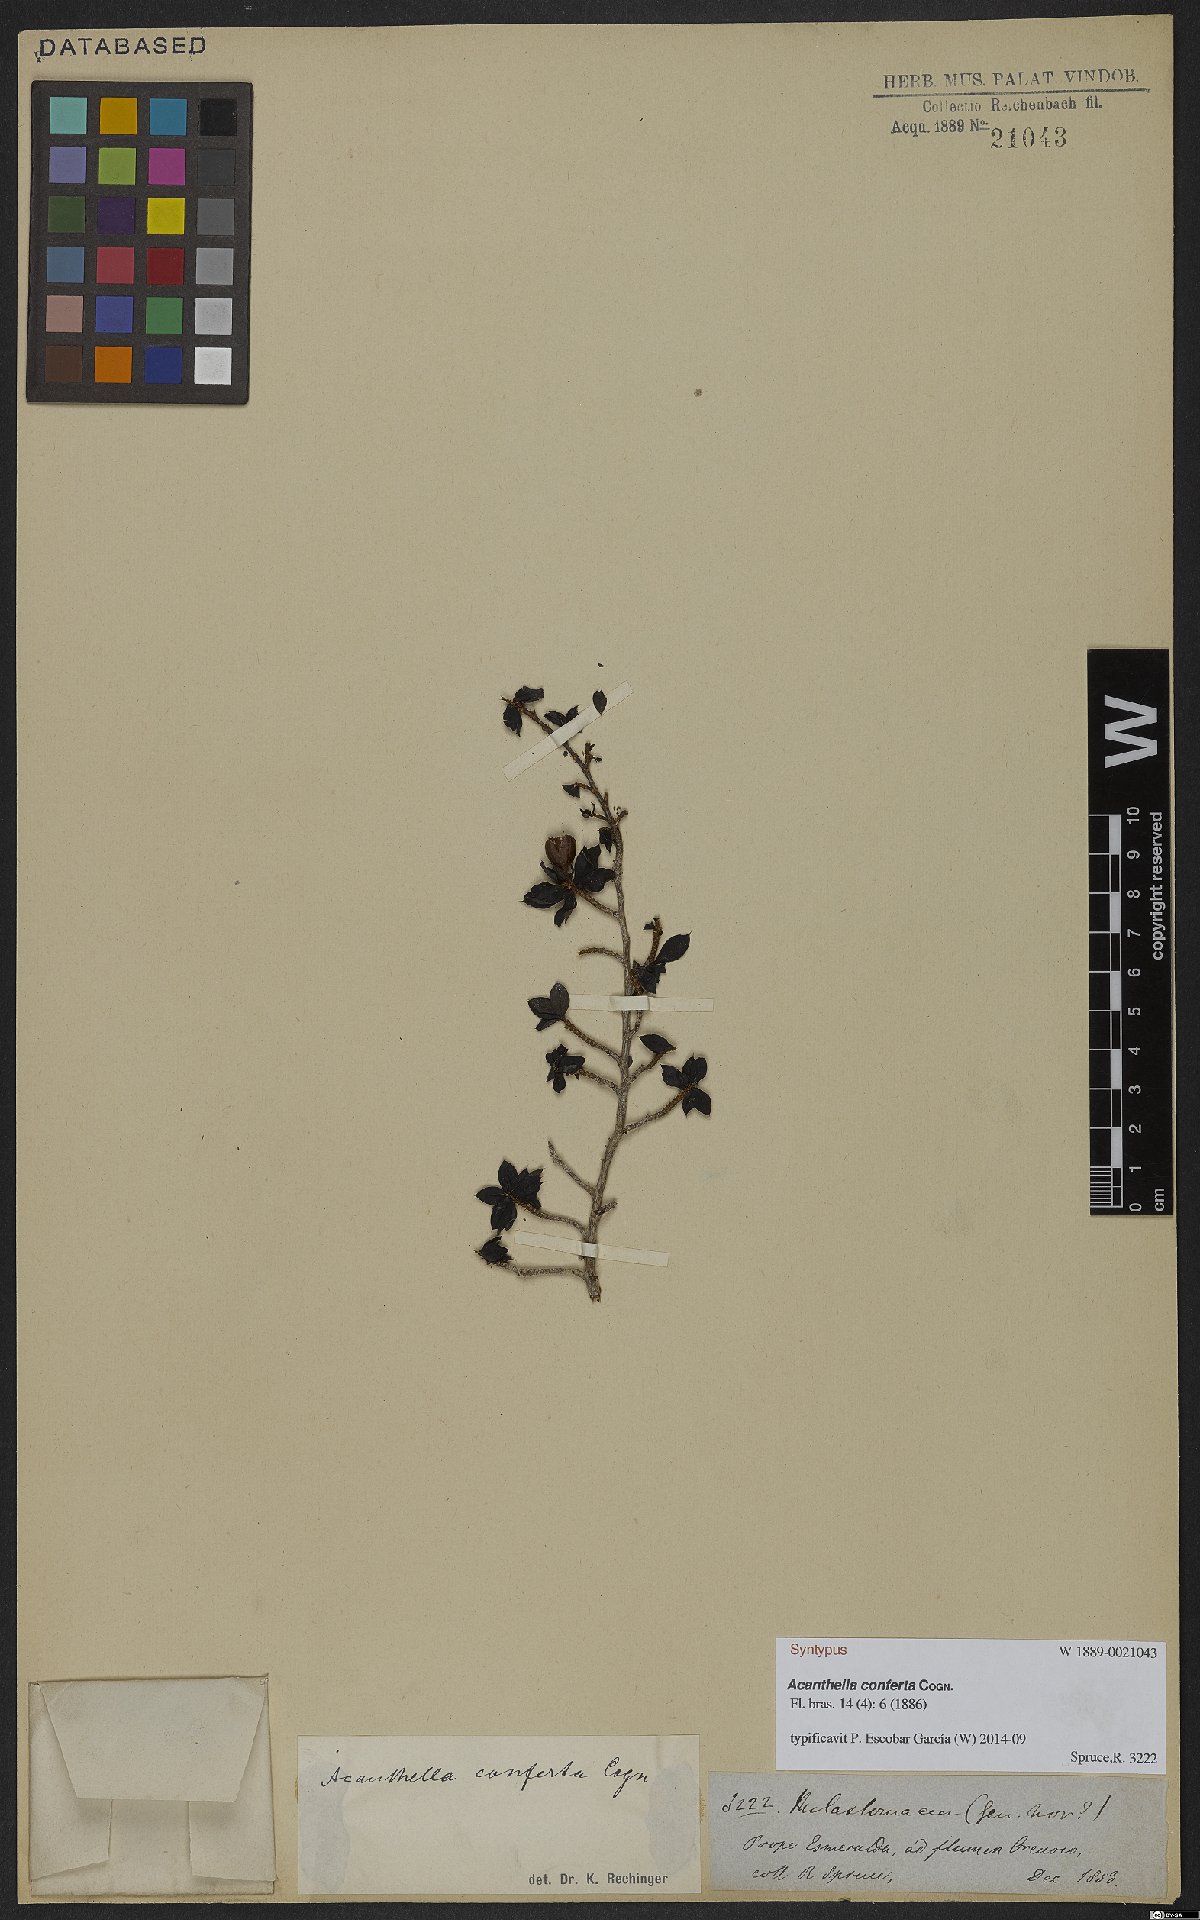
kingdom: Plantae
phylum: Tracheophyta
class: Magnoliopsida
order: Myrtales
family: Melastomataceae
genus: Acanthella
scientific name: Acanthella conferta
